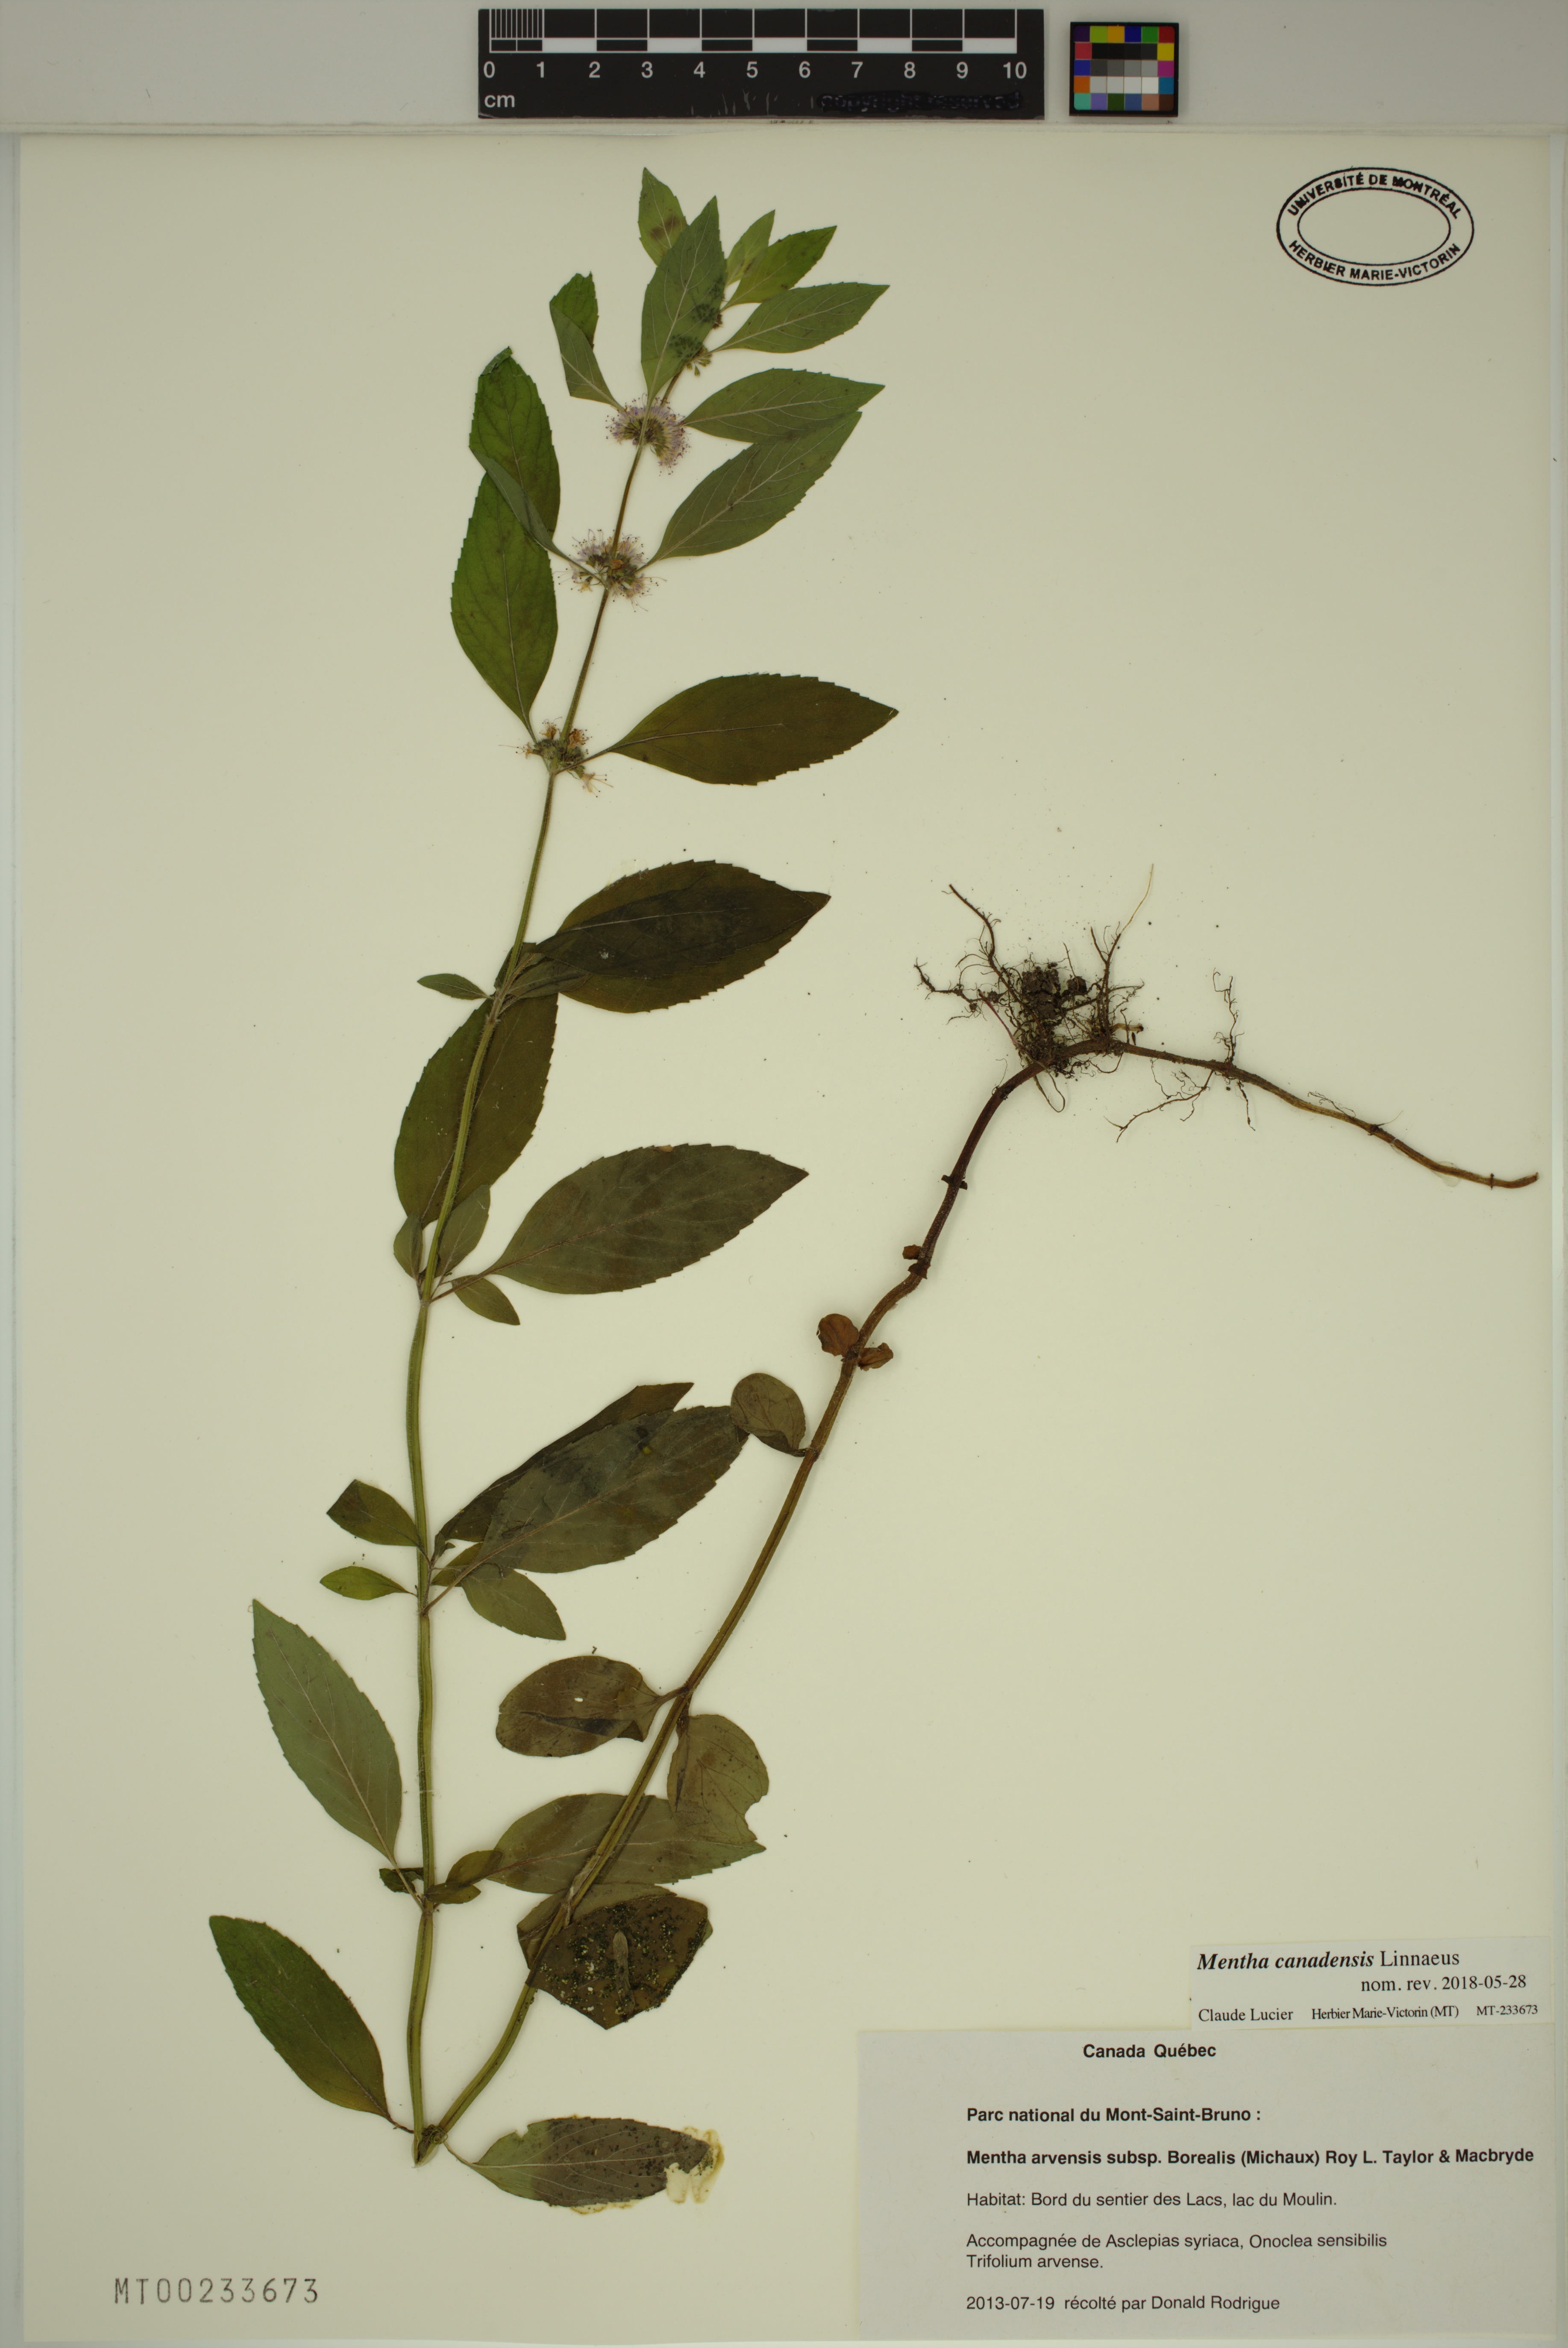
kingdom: Plantae
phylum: Tracheophyta
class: Magnoliopsida
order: Lamiales
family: Lamiaceae
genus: Mentha
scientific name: Mentha canadensis
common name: American corn mint
